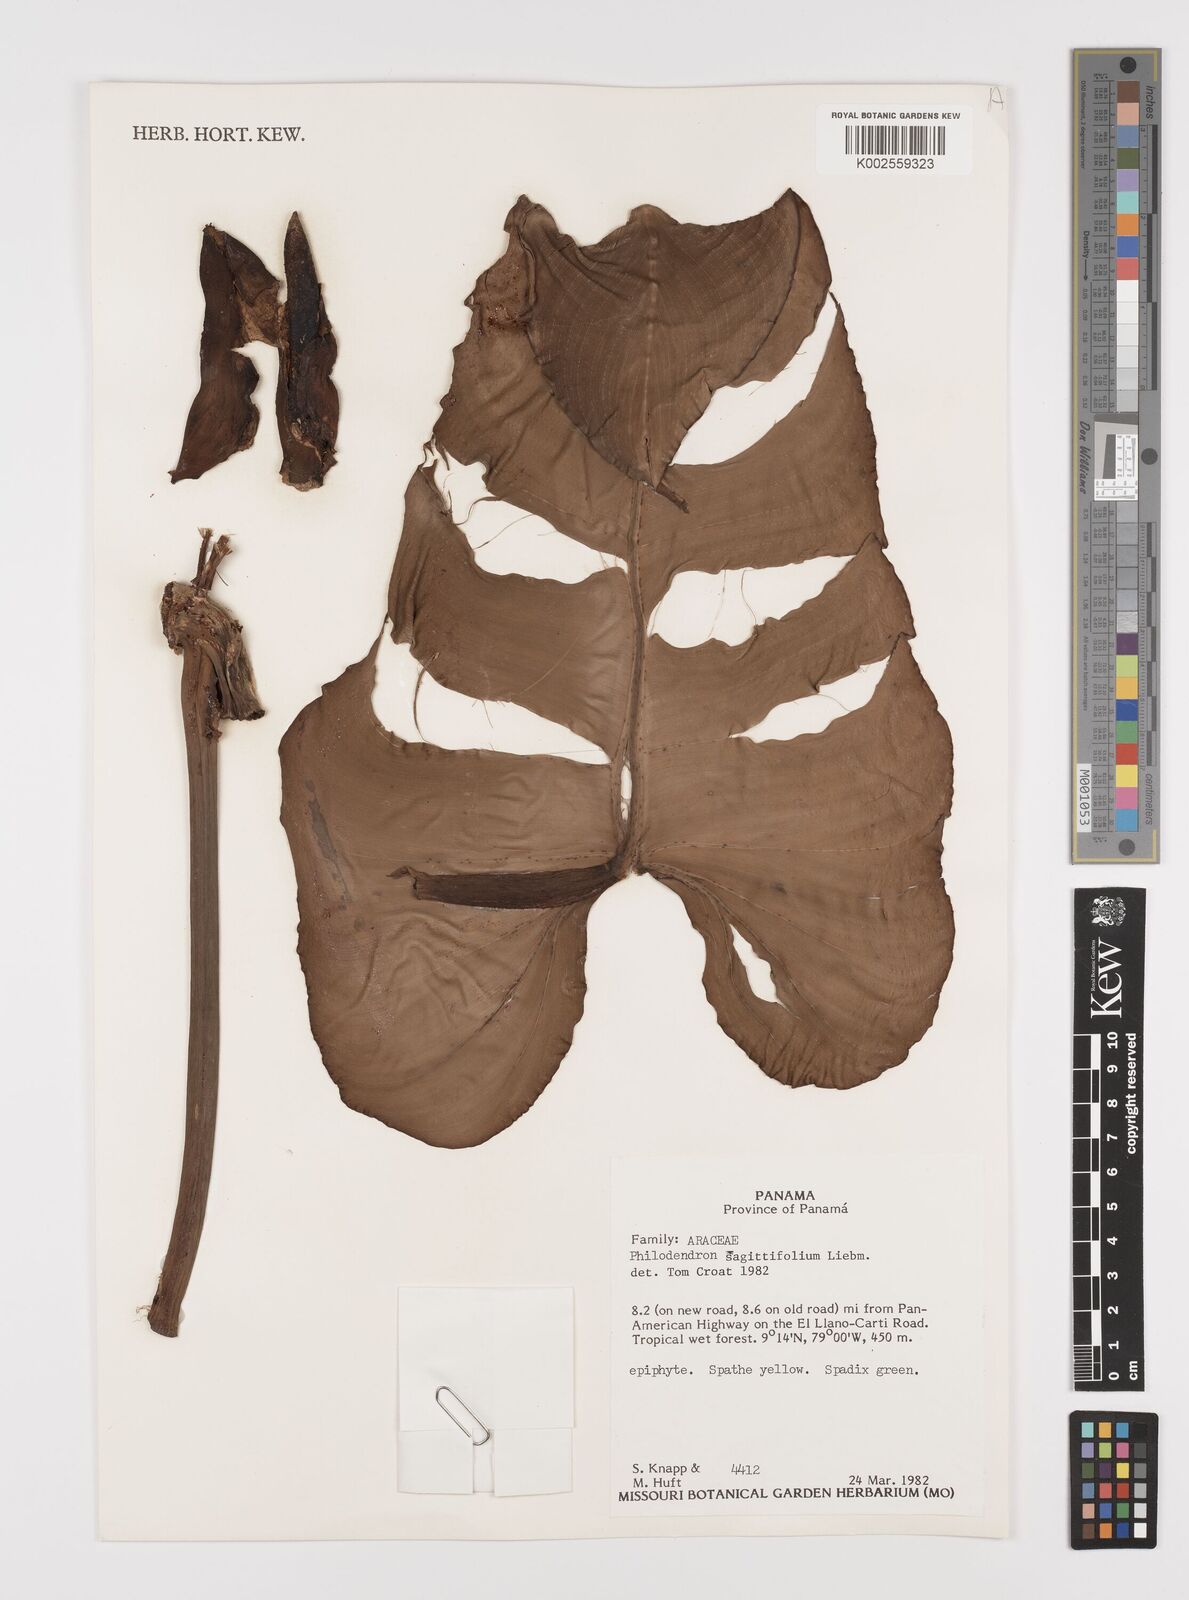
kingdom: Plantae
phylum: Tracheophyta
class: Liliopsida
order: Alismatales
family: Araceae
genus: Philodendron
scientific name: Philodendron sagittifolium
